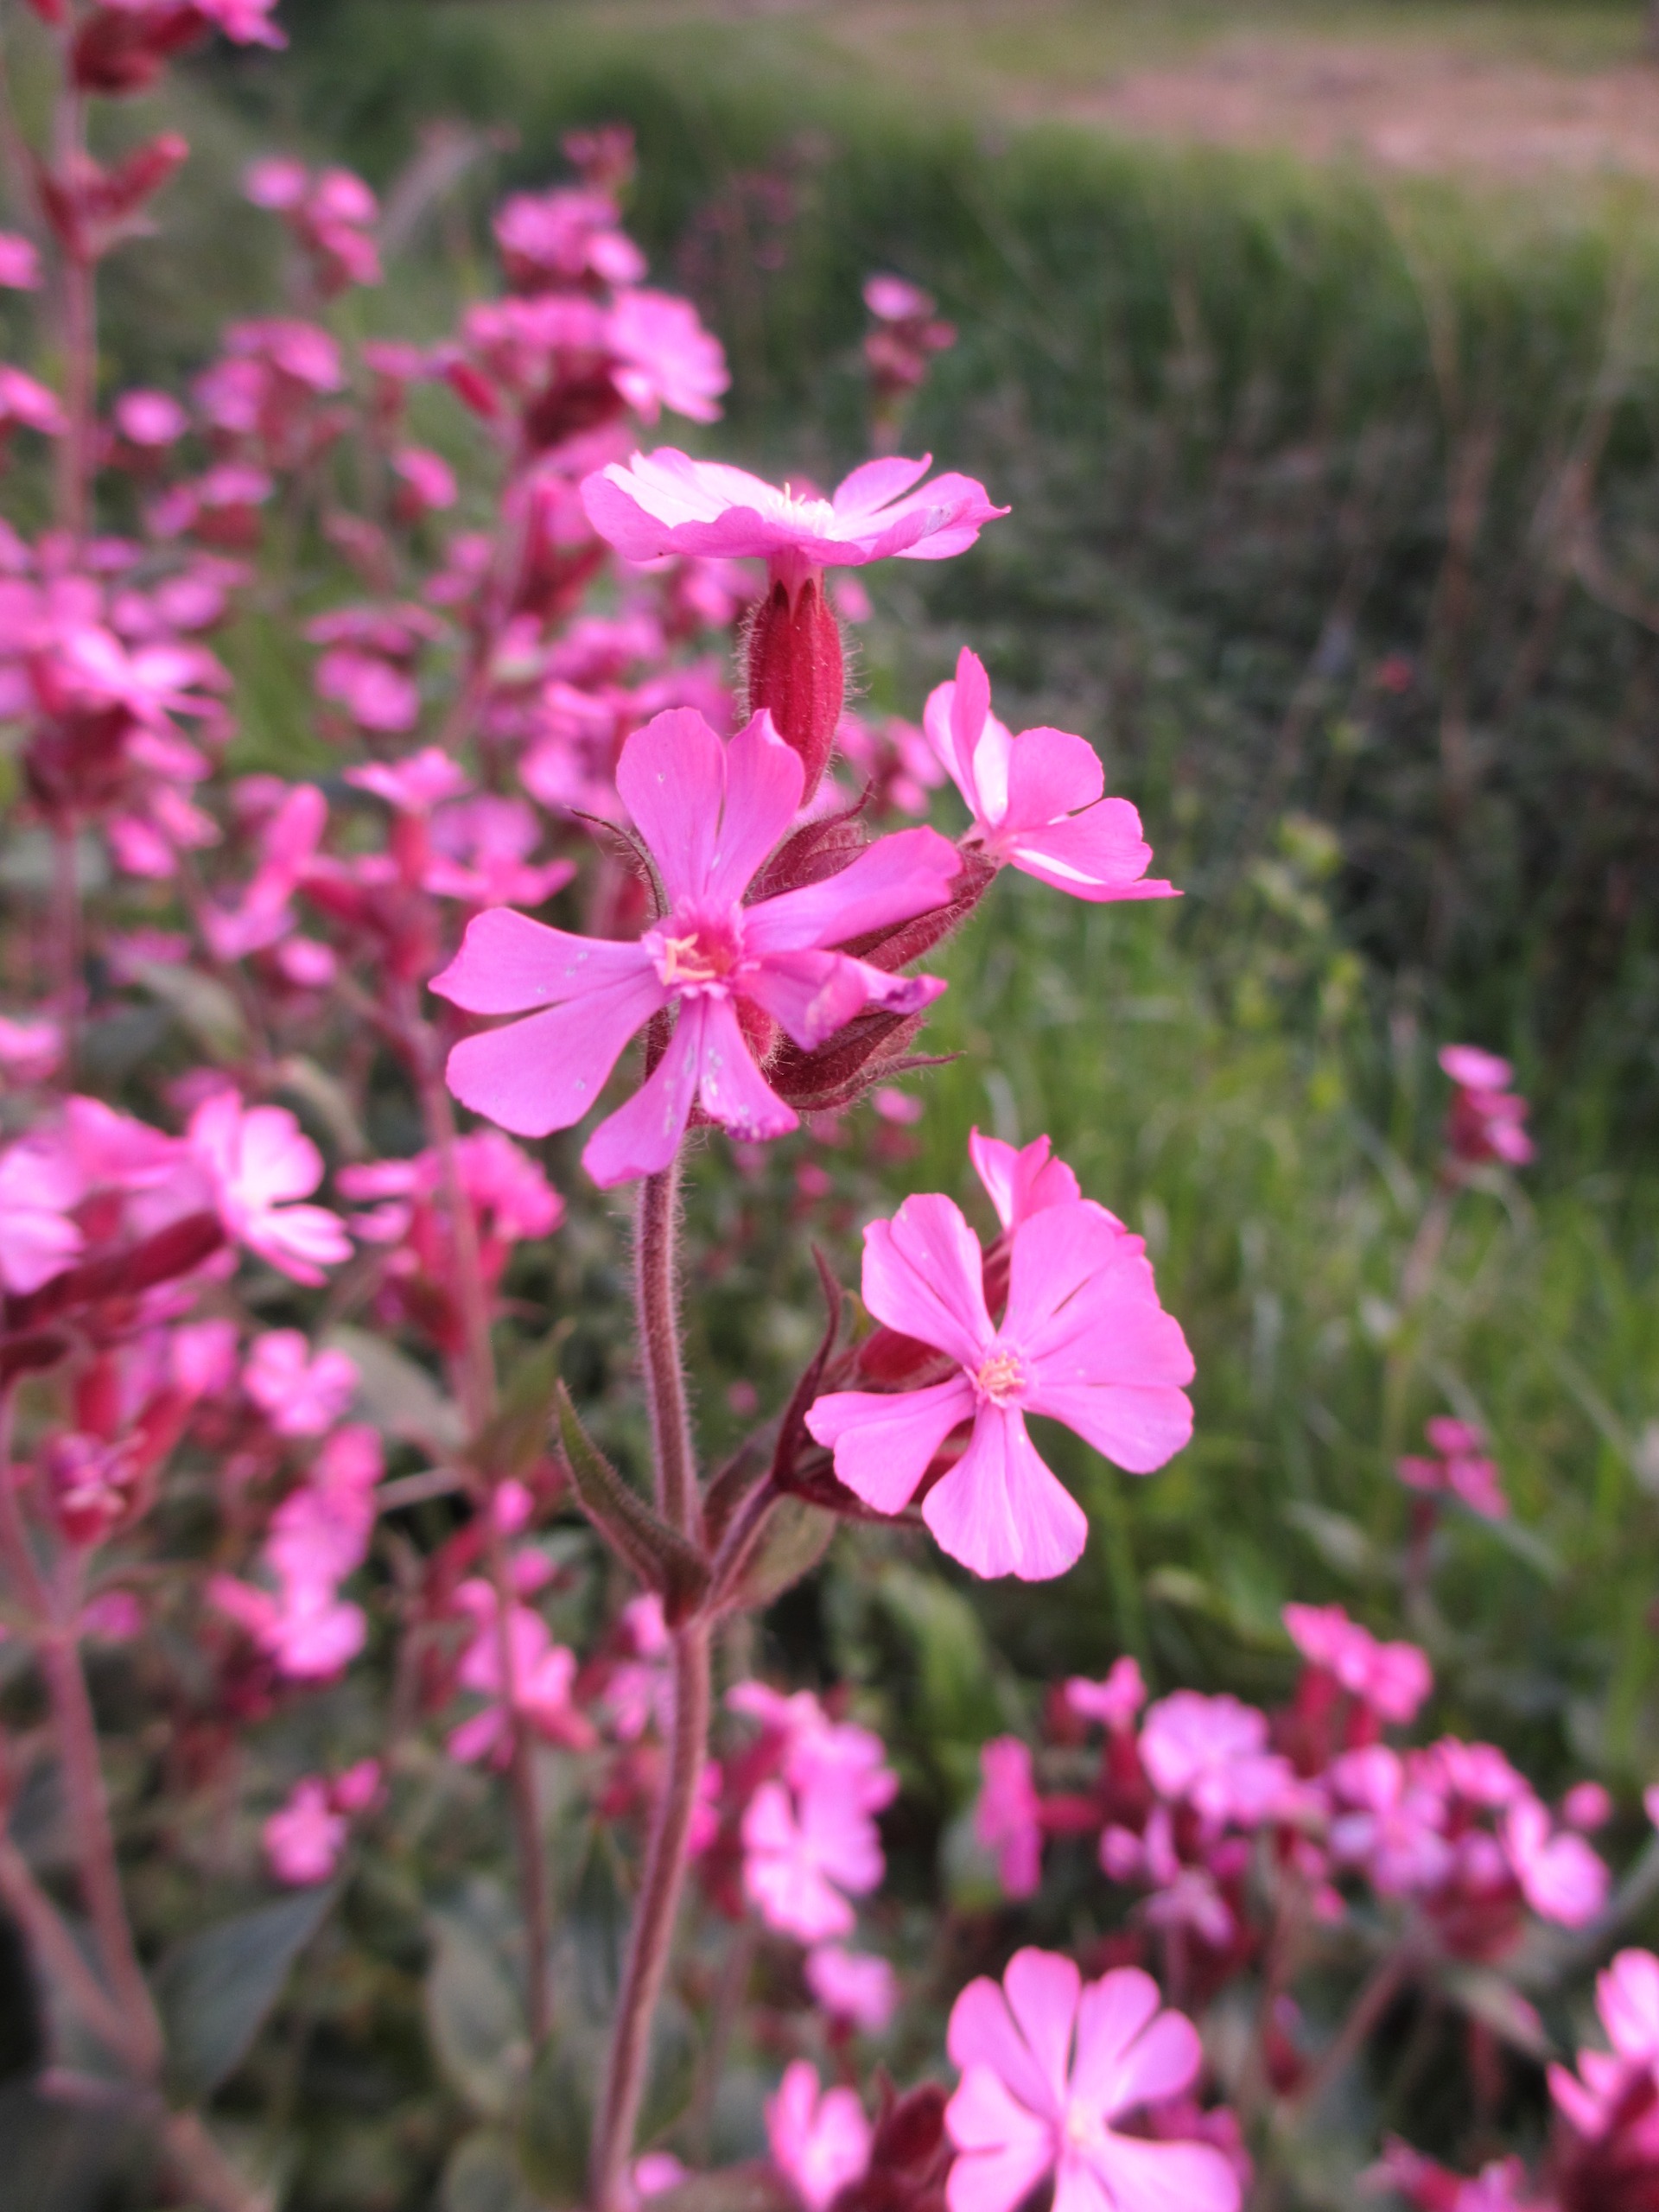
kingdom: Plantae
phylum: Tracheophyta
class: Magnoliopsida
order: Caryophyllales
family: Caryophyllaceae
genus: Silene
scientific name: Silene dioica
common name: Dagpragtstjerne
